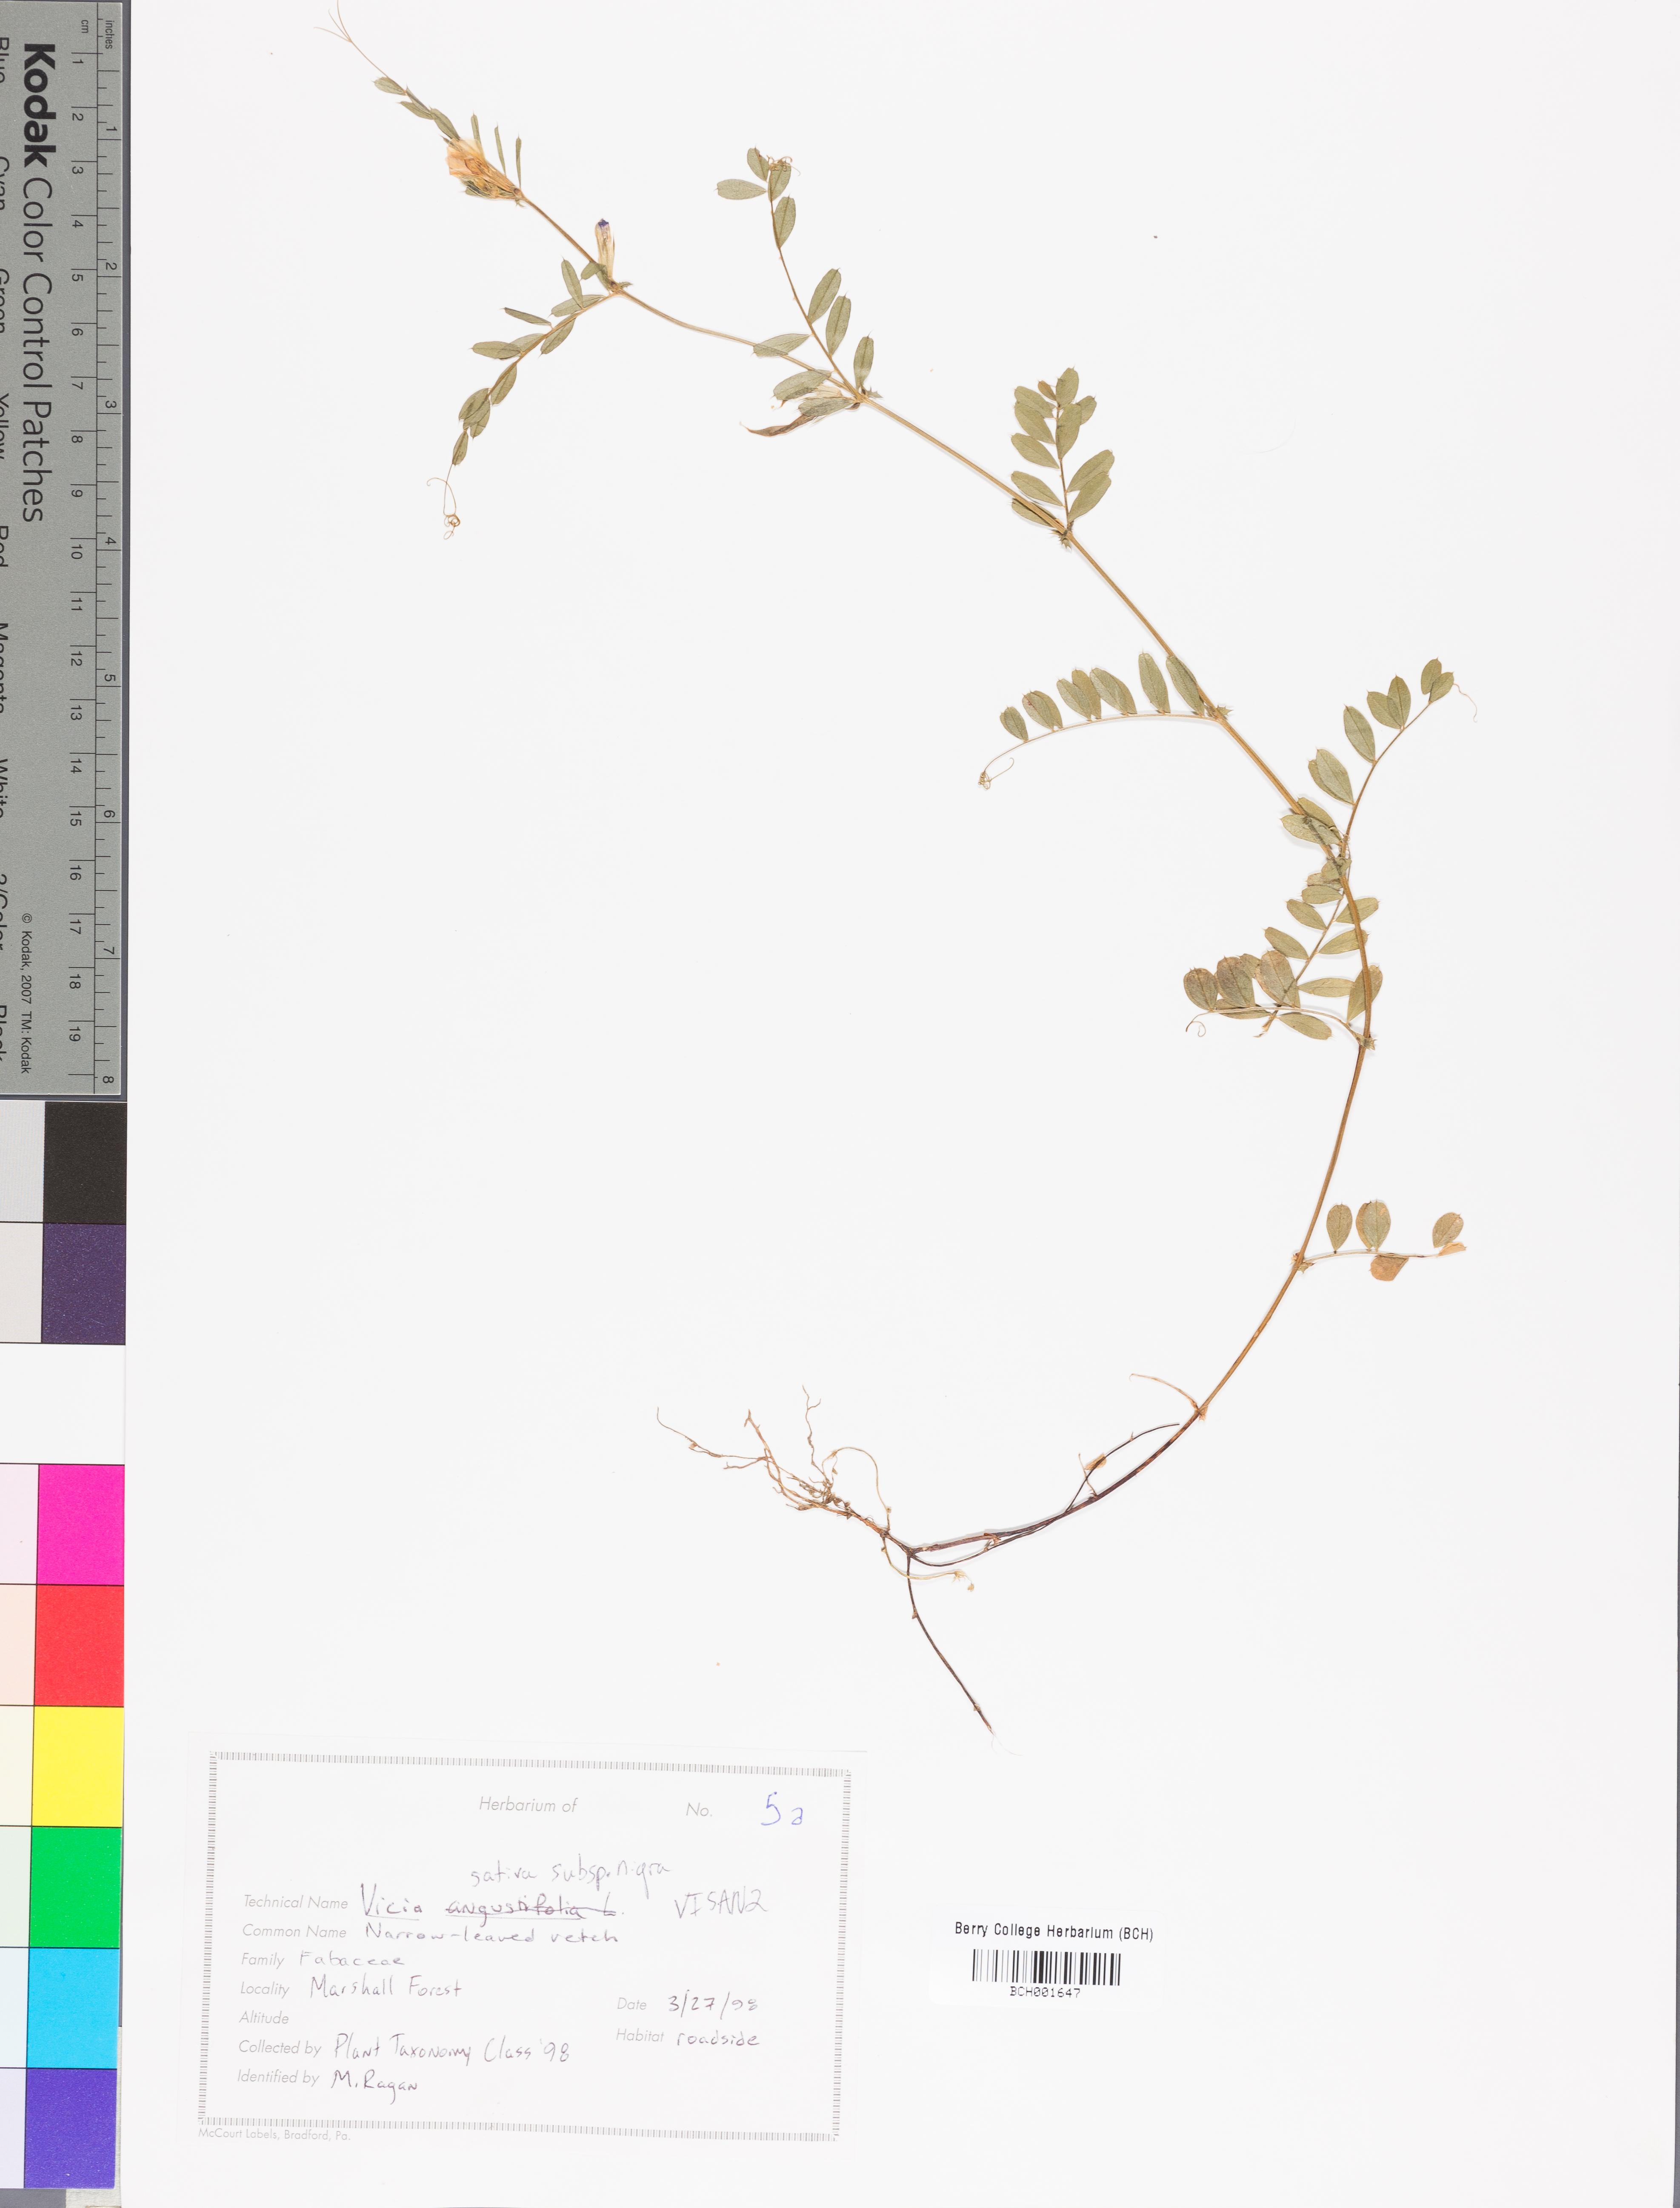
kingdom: Plantae
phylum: Tracheophyta
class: Magnoliopsida
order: Fabales
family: Fabaceae
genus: Vicia
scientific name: Vicia sativa
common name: Garden vetch
